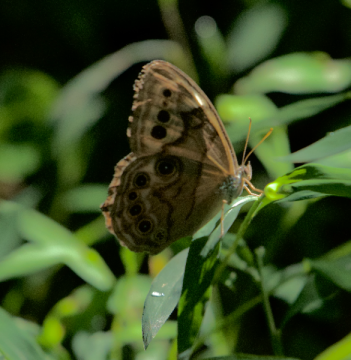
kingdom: Animalia
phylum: Arthropoda
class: Insecta
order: Lepidoptera
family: Nymphalidae
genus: Lethe
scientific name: Lethe anthedon
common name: Northern Pearly-Eye
